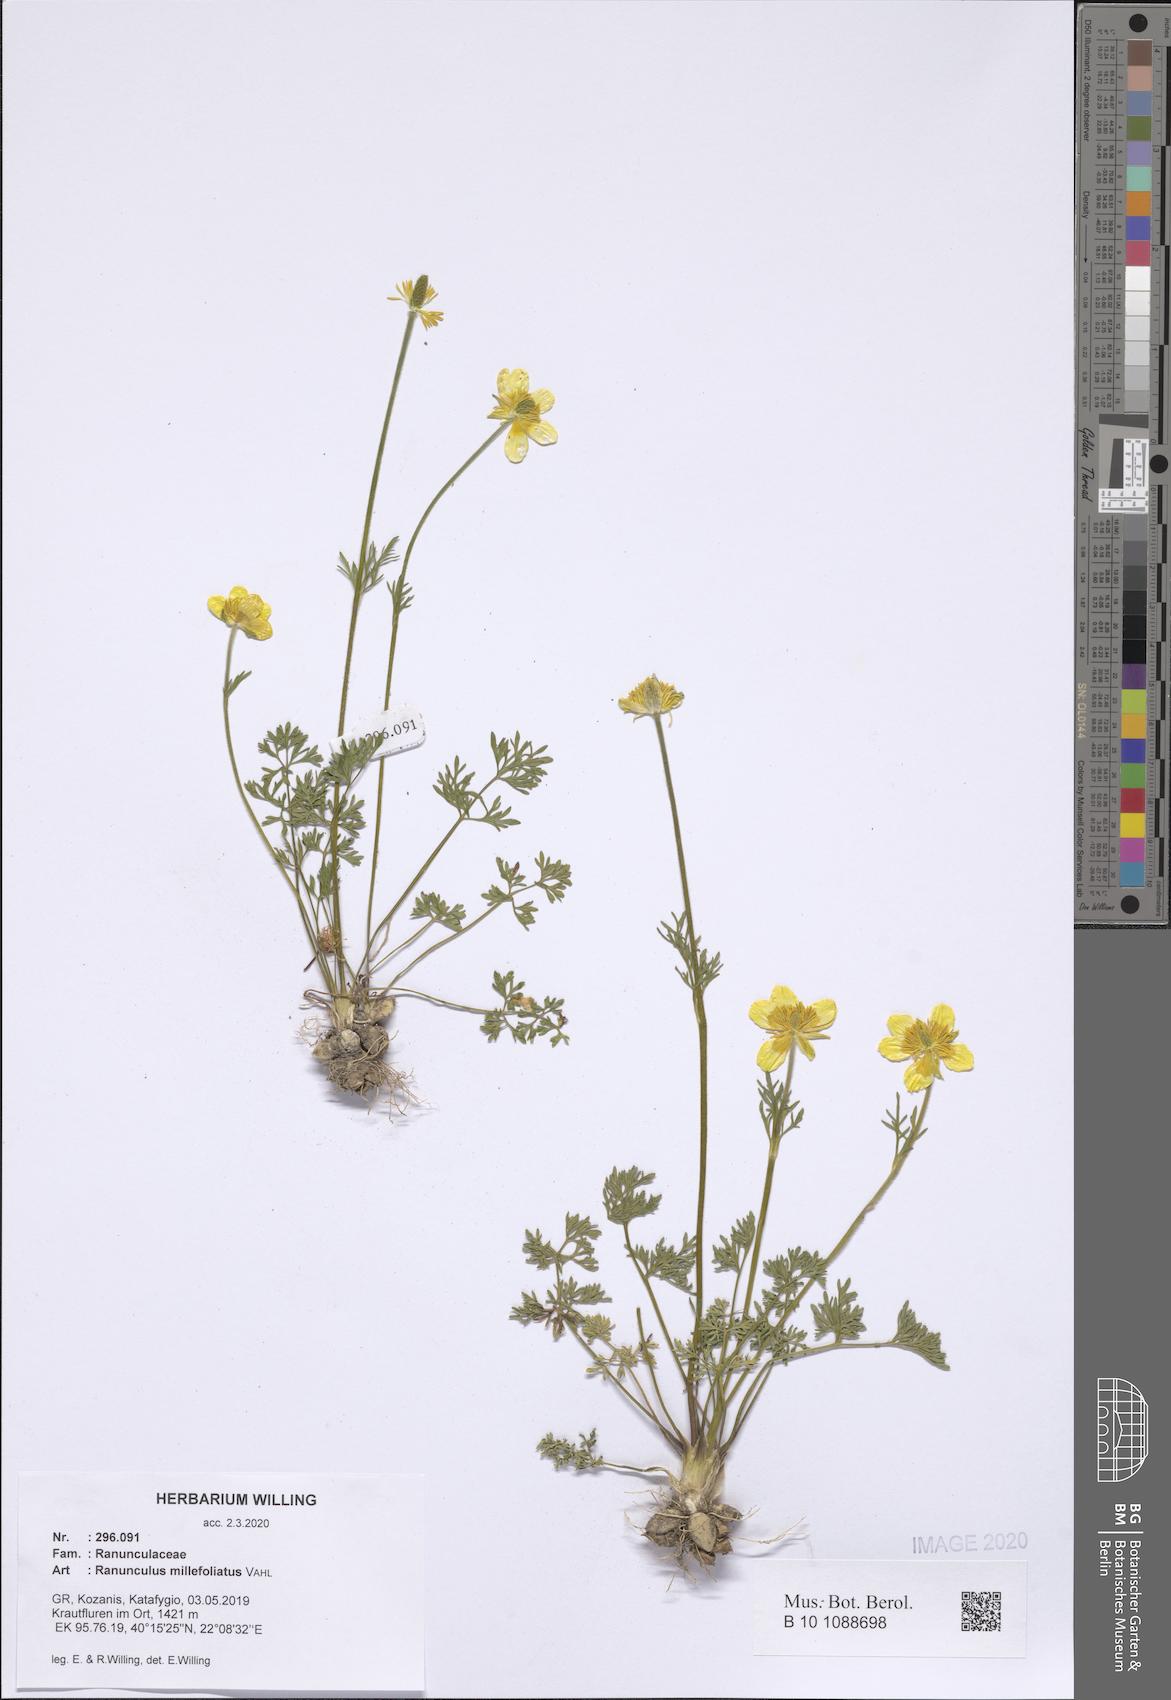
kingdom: Plantae
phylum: Tracheophyta
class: Magnoliopsida
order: Ranunculales
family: Ranunculaceae
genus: Ranunculus
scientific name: Ranunculus millefoliatus
